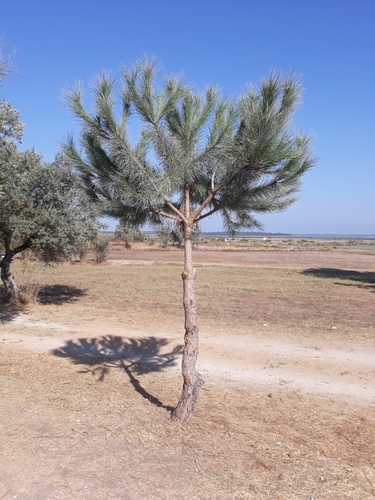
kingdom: Plantae
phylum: Tracheophyta
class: Pinopsida
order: Pinales
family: Pinaceae
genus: Pinus
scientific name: Pinus pinea
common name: Italian stone pine
